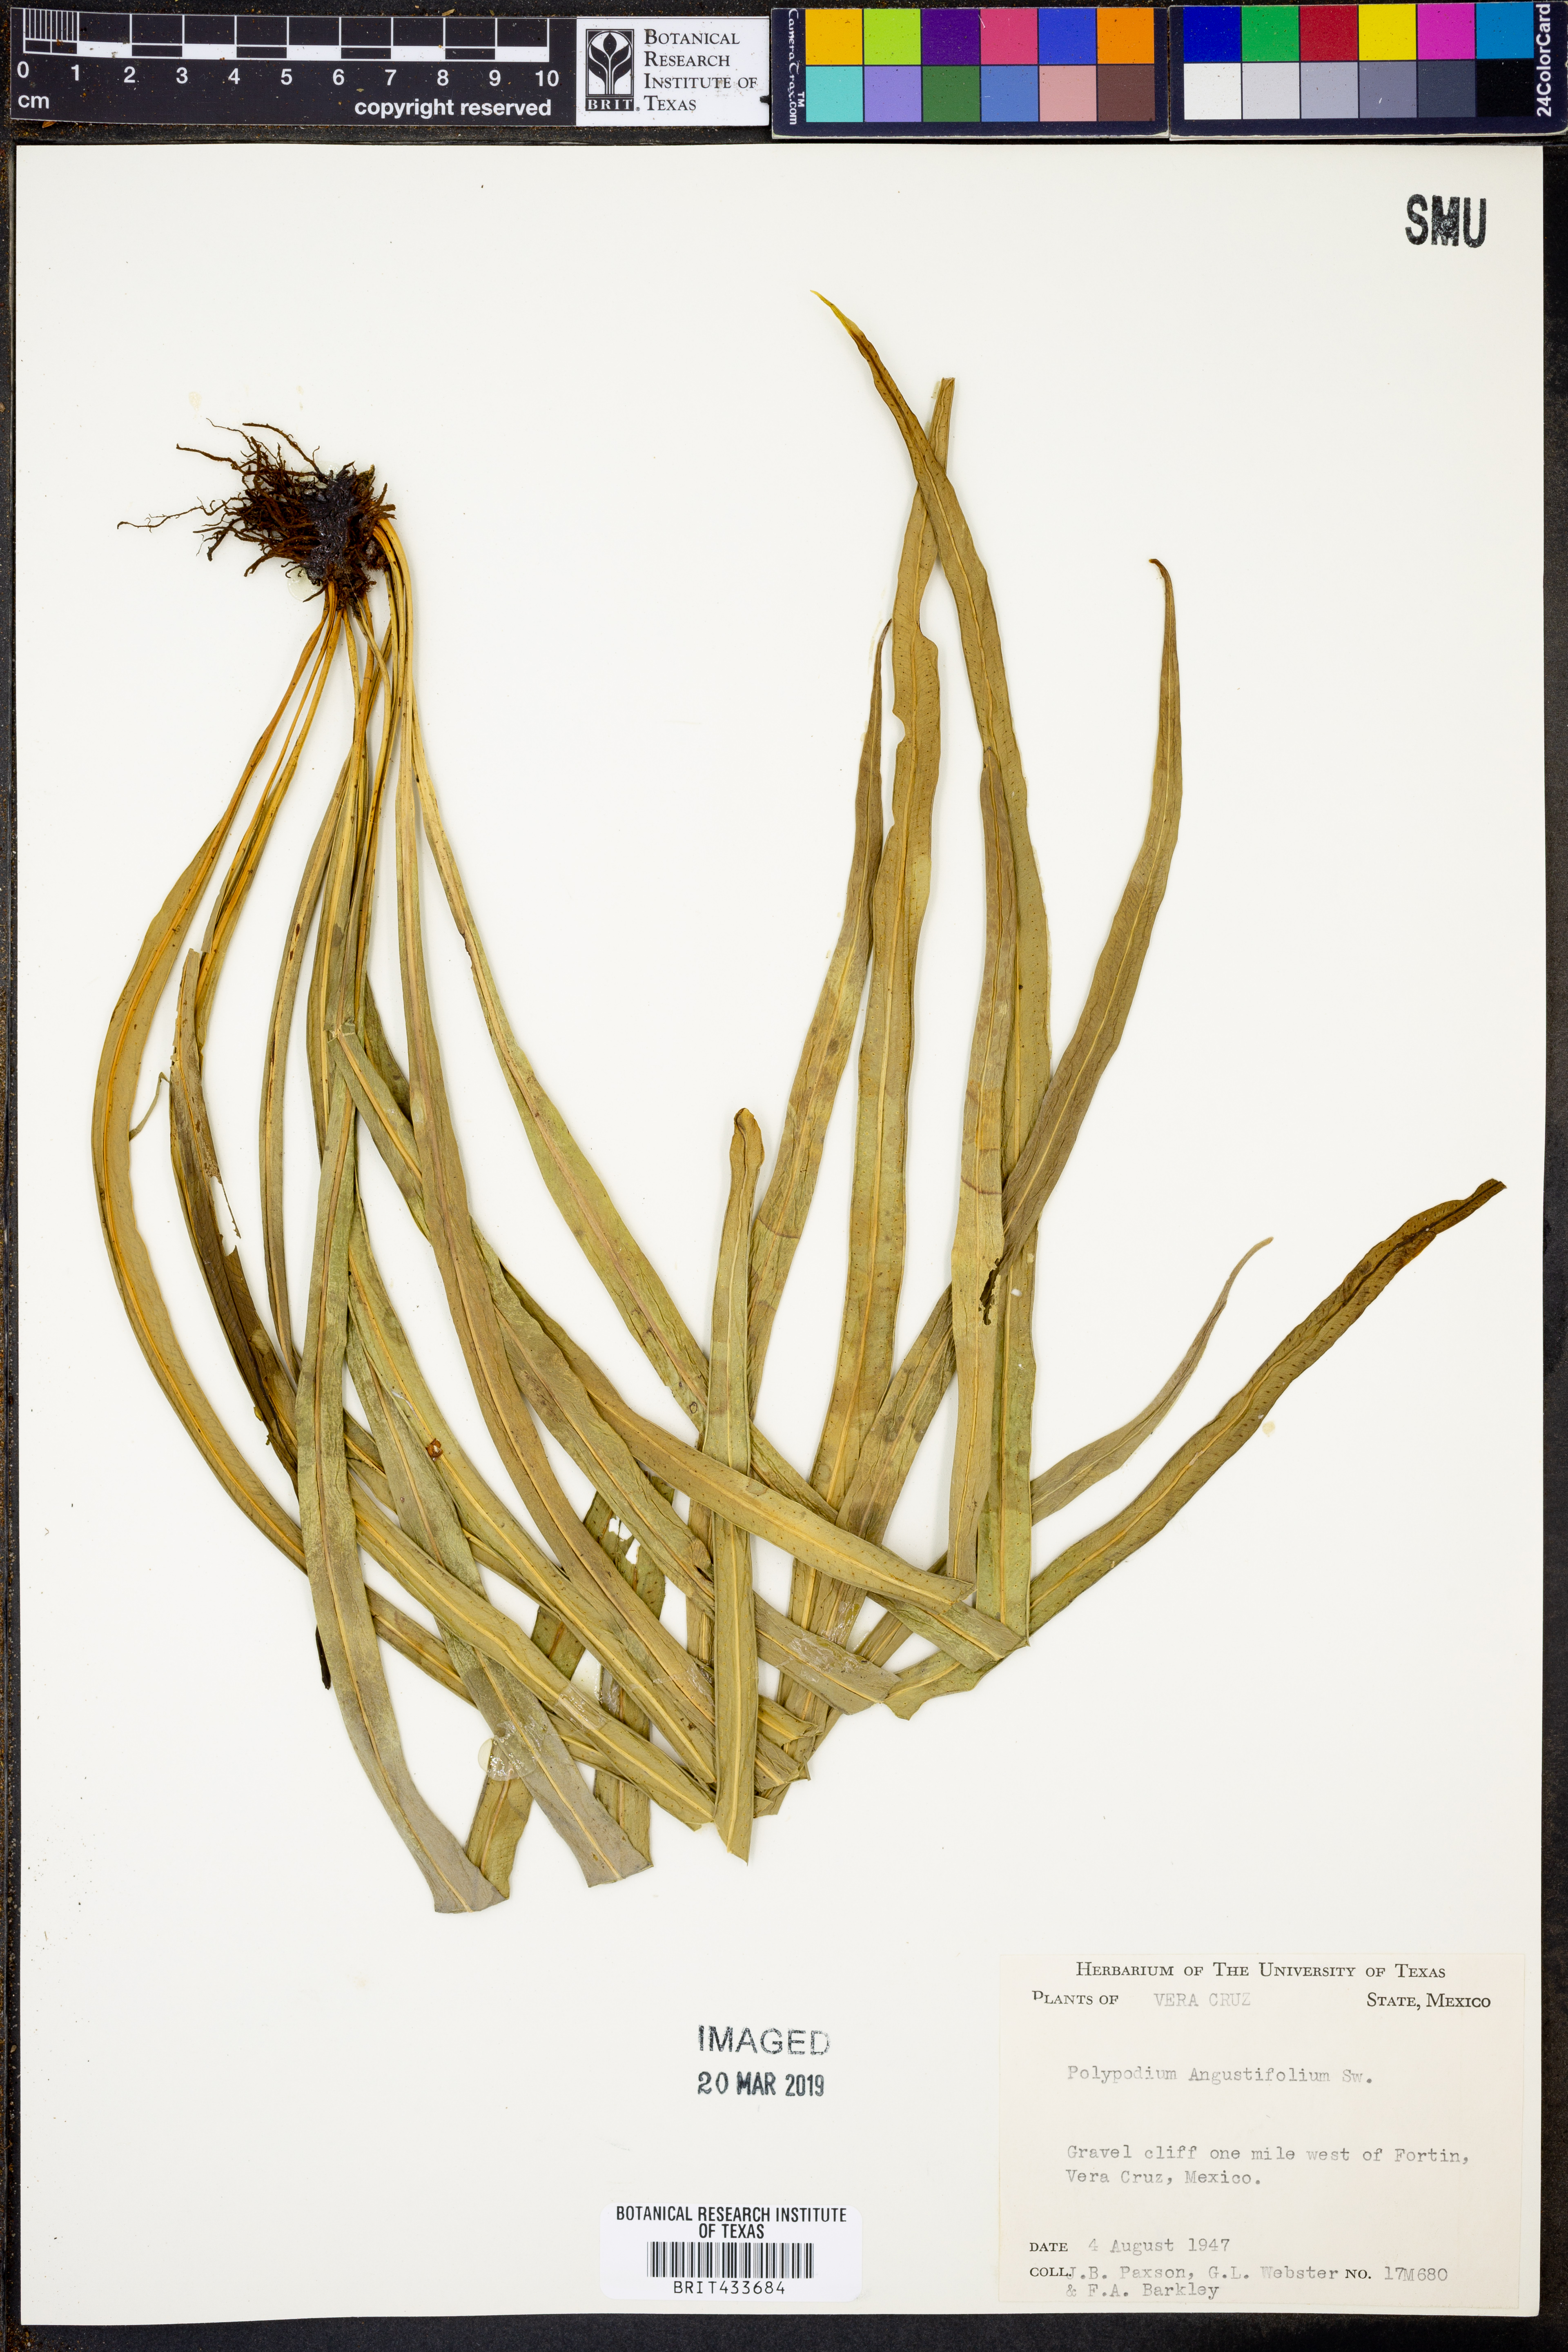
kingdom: Plantae
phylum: Tracheophyta
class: Polypodiopsida
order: Polypodiales
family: Polypodiaceae
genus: Campyloneurum
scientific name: Campyloneurum angustifolium
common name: Narrow-leaf strap fern
